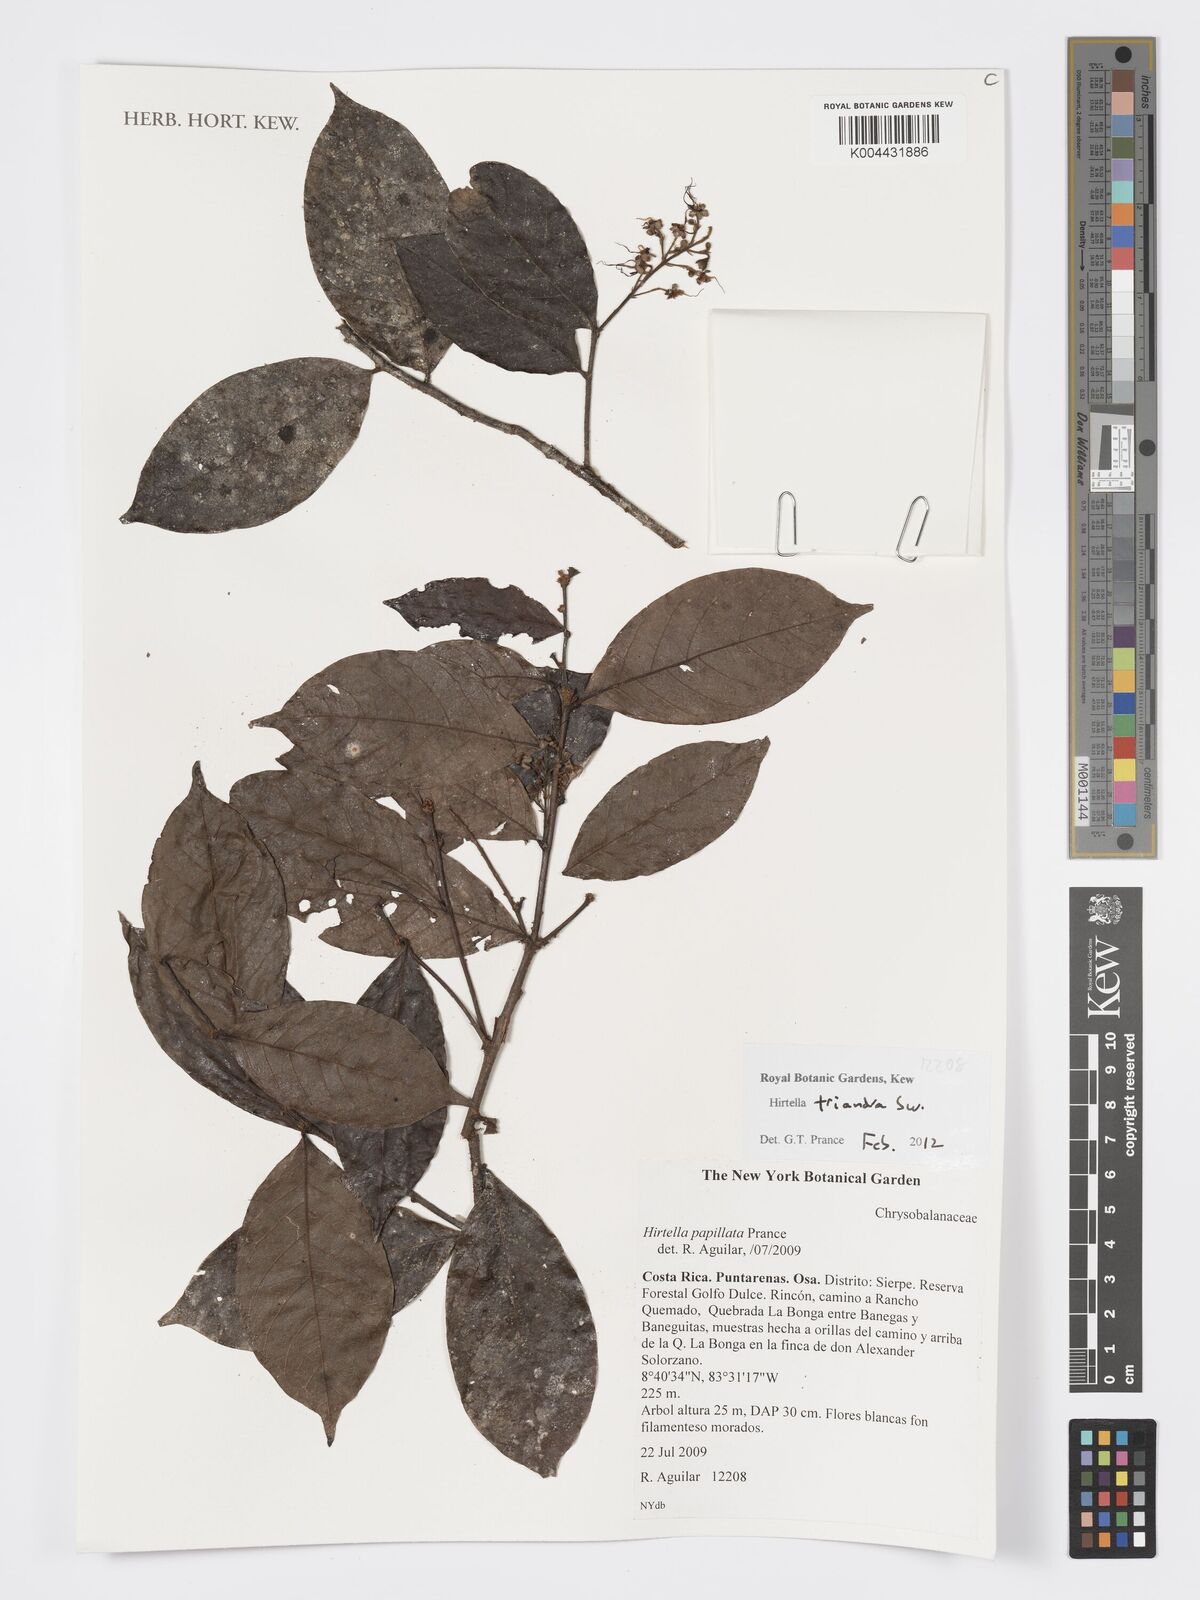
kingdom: Plantae
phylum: Tracheophyta
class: Magnoliopsida
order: Malpighiales
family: Chrysobalanaceae
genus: Hirtella
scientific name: Hirtella triandra
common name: Hairy plum
